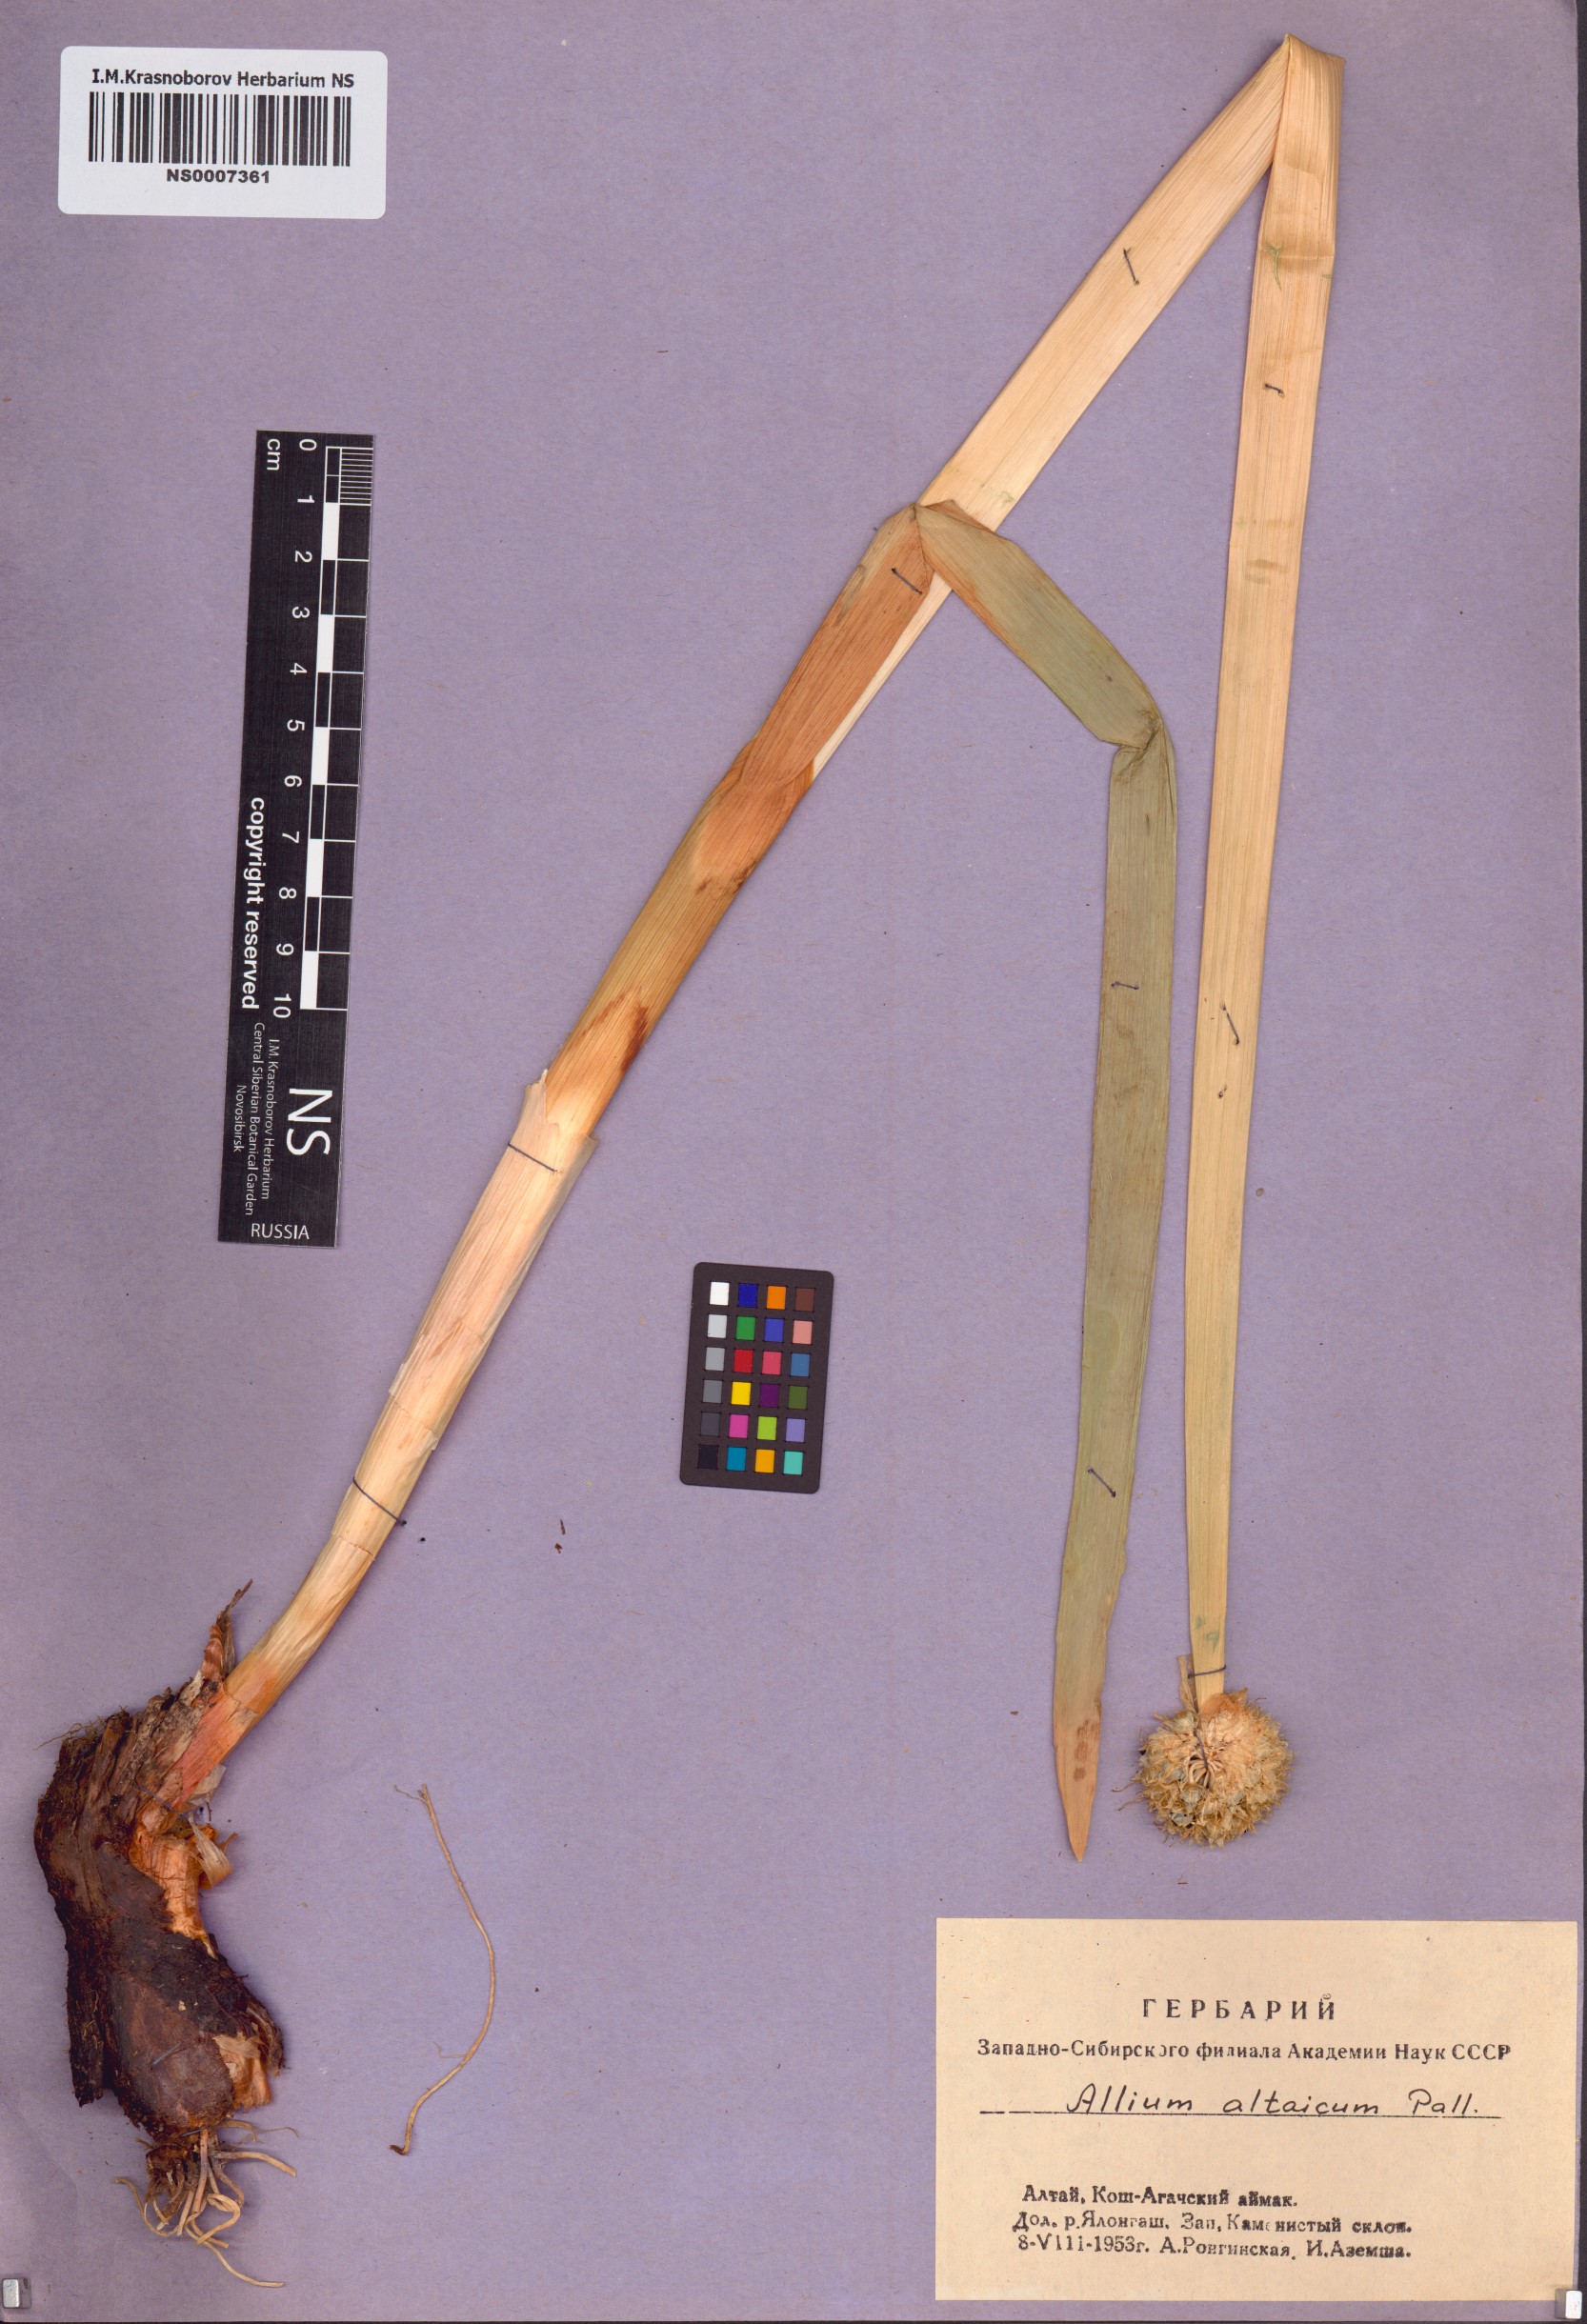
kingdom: Plantae
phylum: Tracheophyta
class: Liliopsida
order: Asparagales
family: Amaryllidaceae
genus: Allium
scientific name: Allium altaicum
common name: Altai onion
